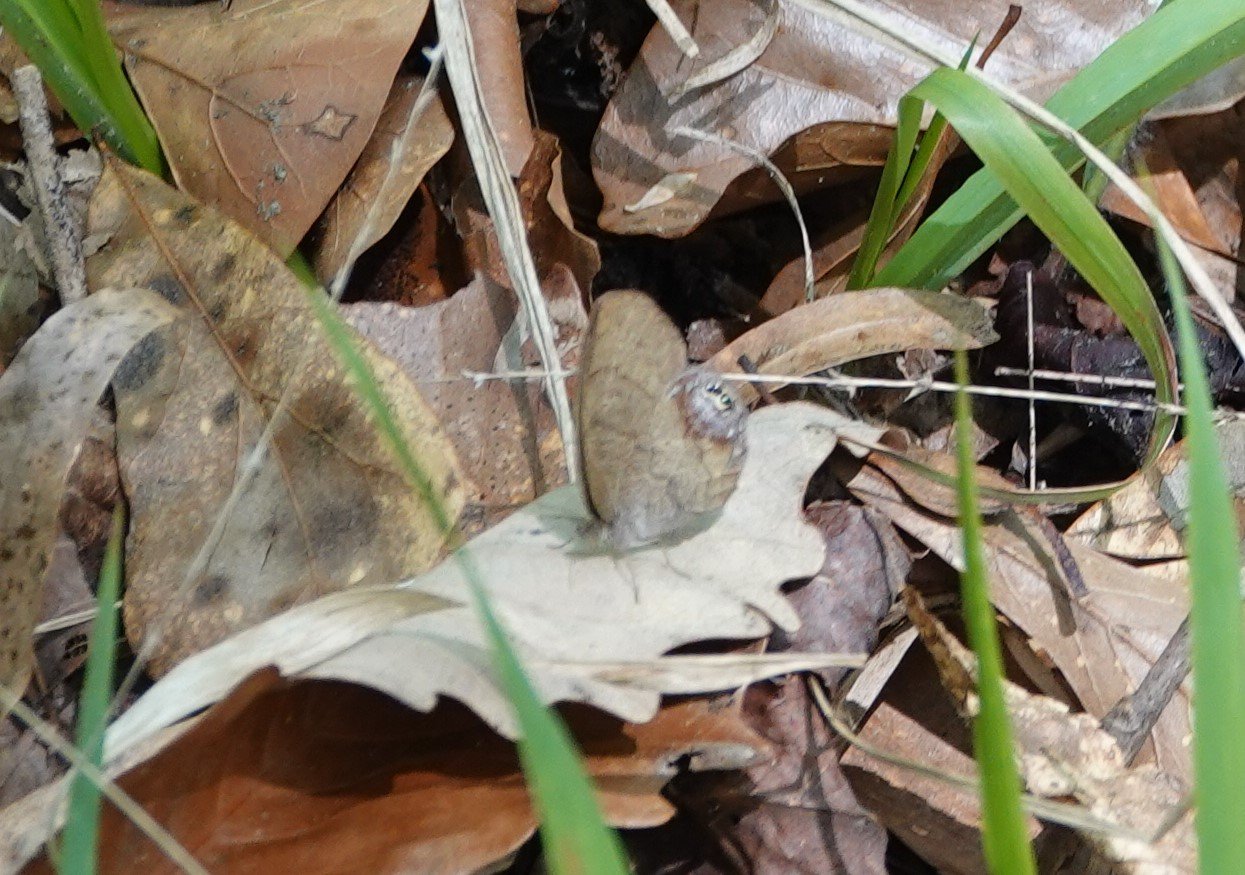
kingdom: Animalia
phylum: Arthropoda
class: Insecta
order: Lepidoptera
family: Nymphalidae
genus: Euptychia
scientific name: Euptychia cornelius
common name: Gemmed Satyr
